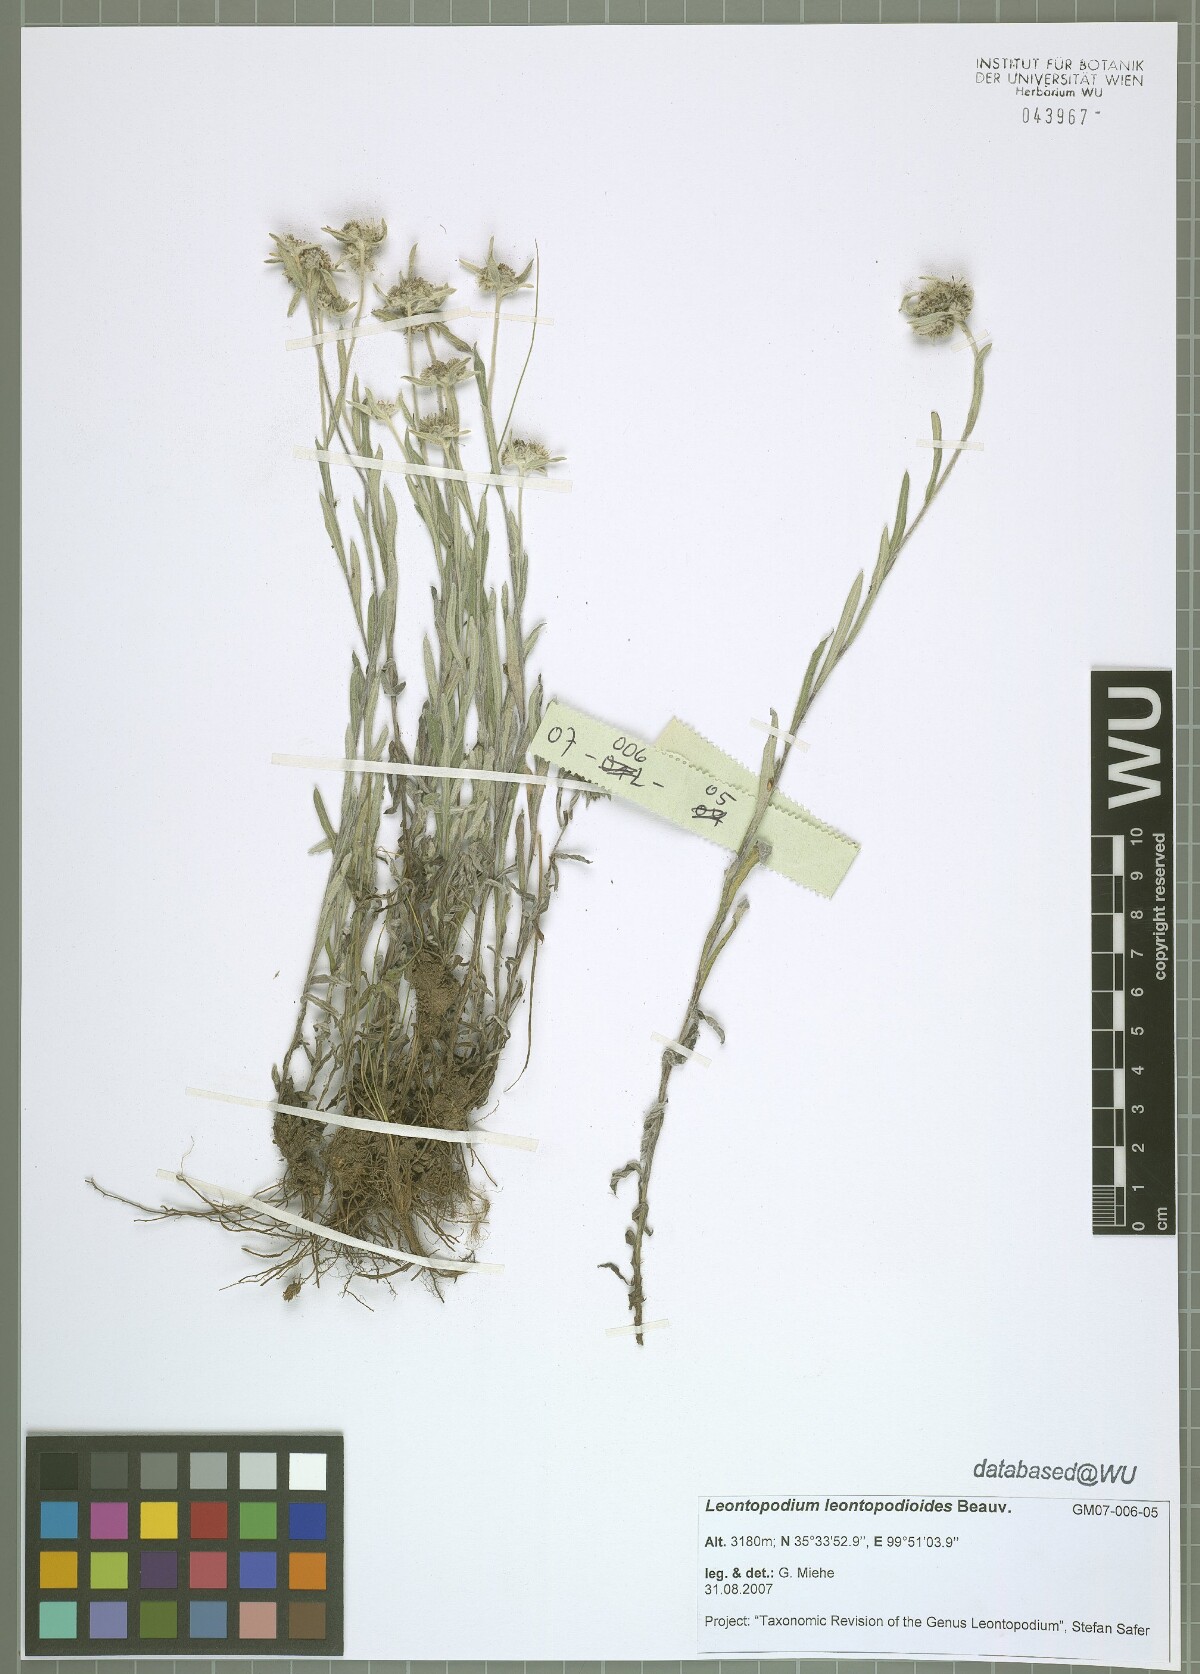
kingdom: Plantae
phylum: Tracheophyta
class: Magnoliopsida
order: Asterales
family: Asteraceae
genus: Leontopodium
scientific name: Leontopodium leontopodioides
